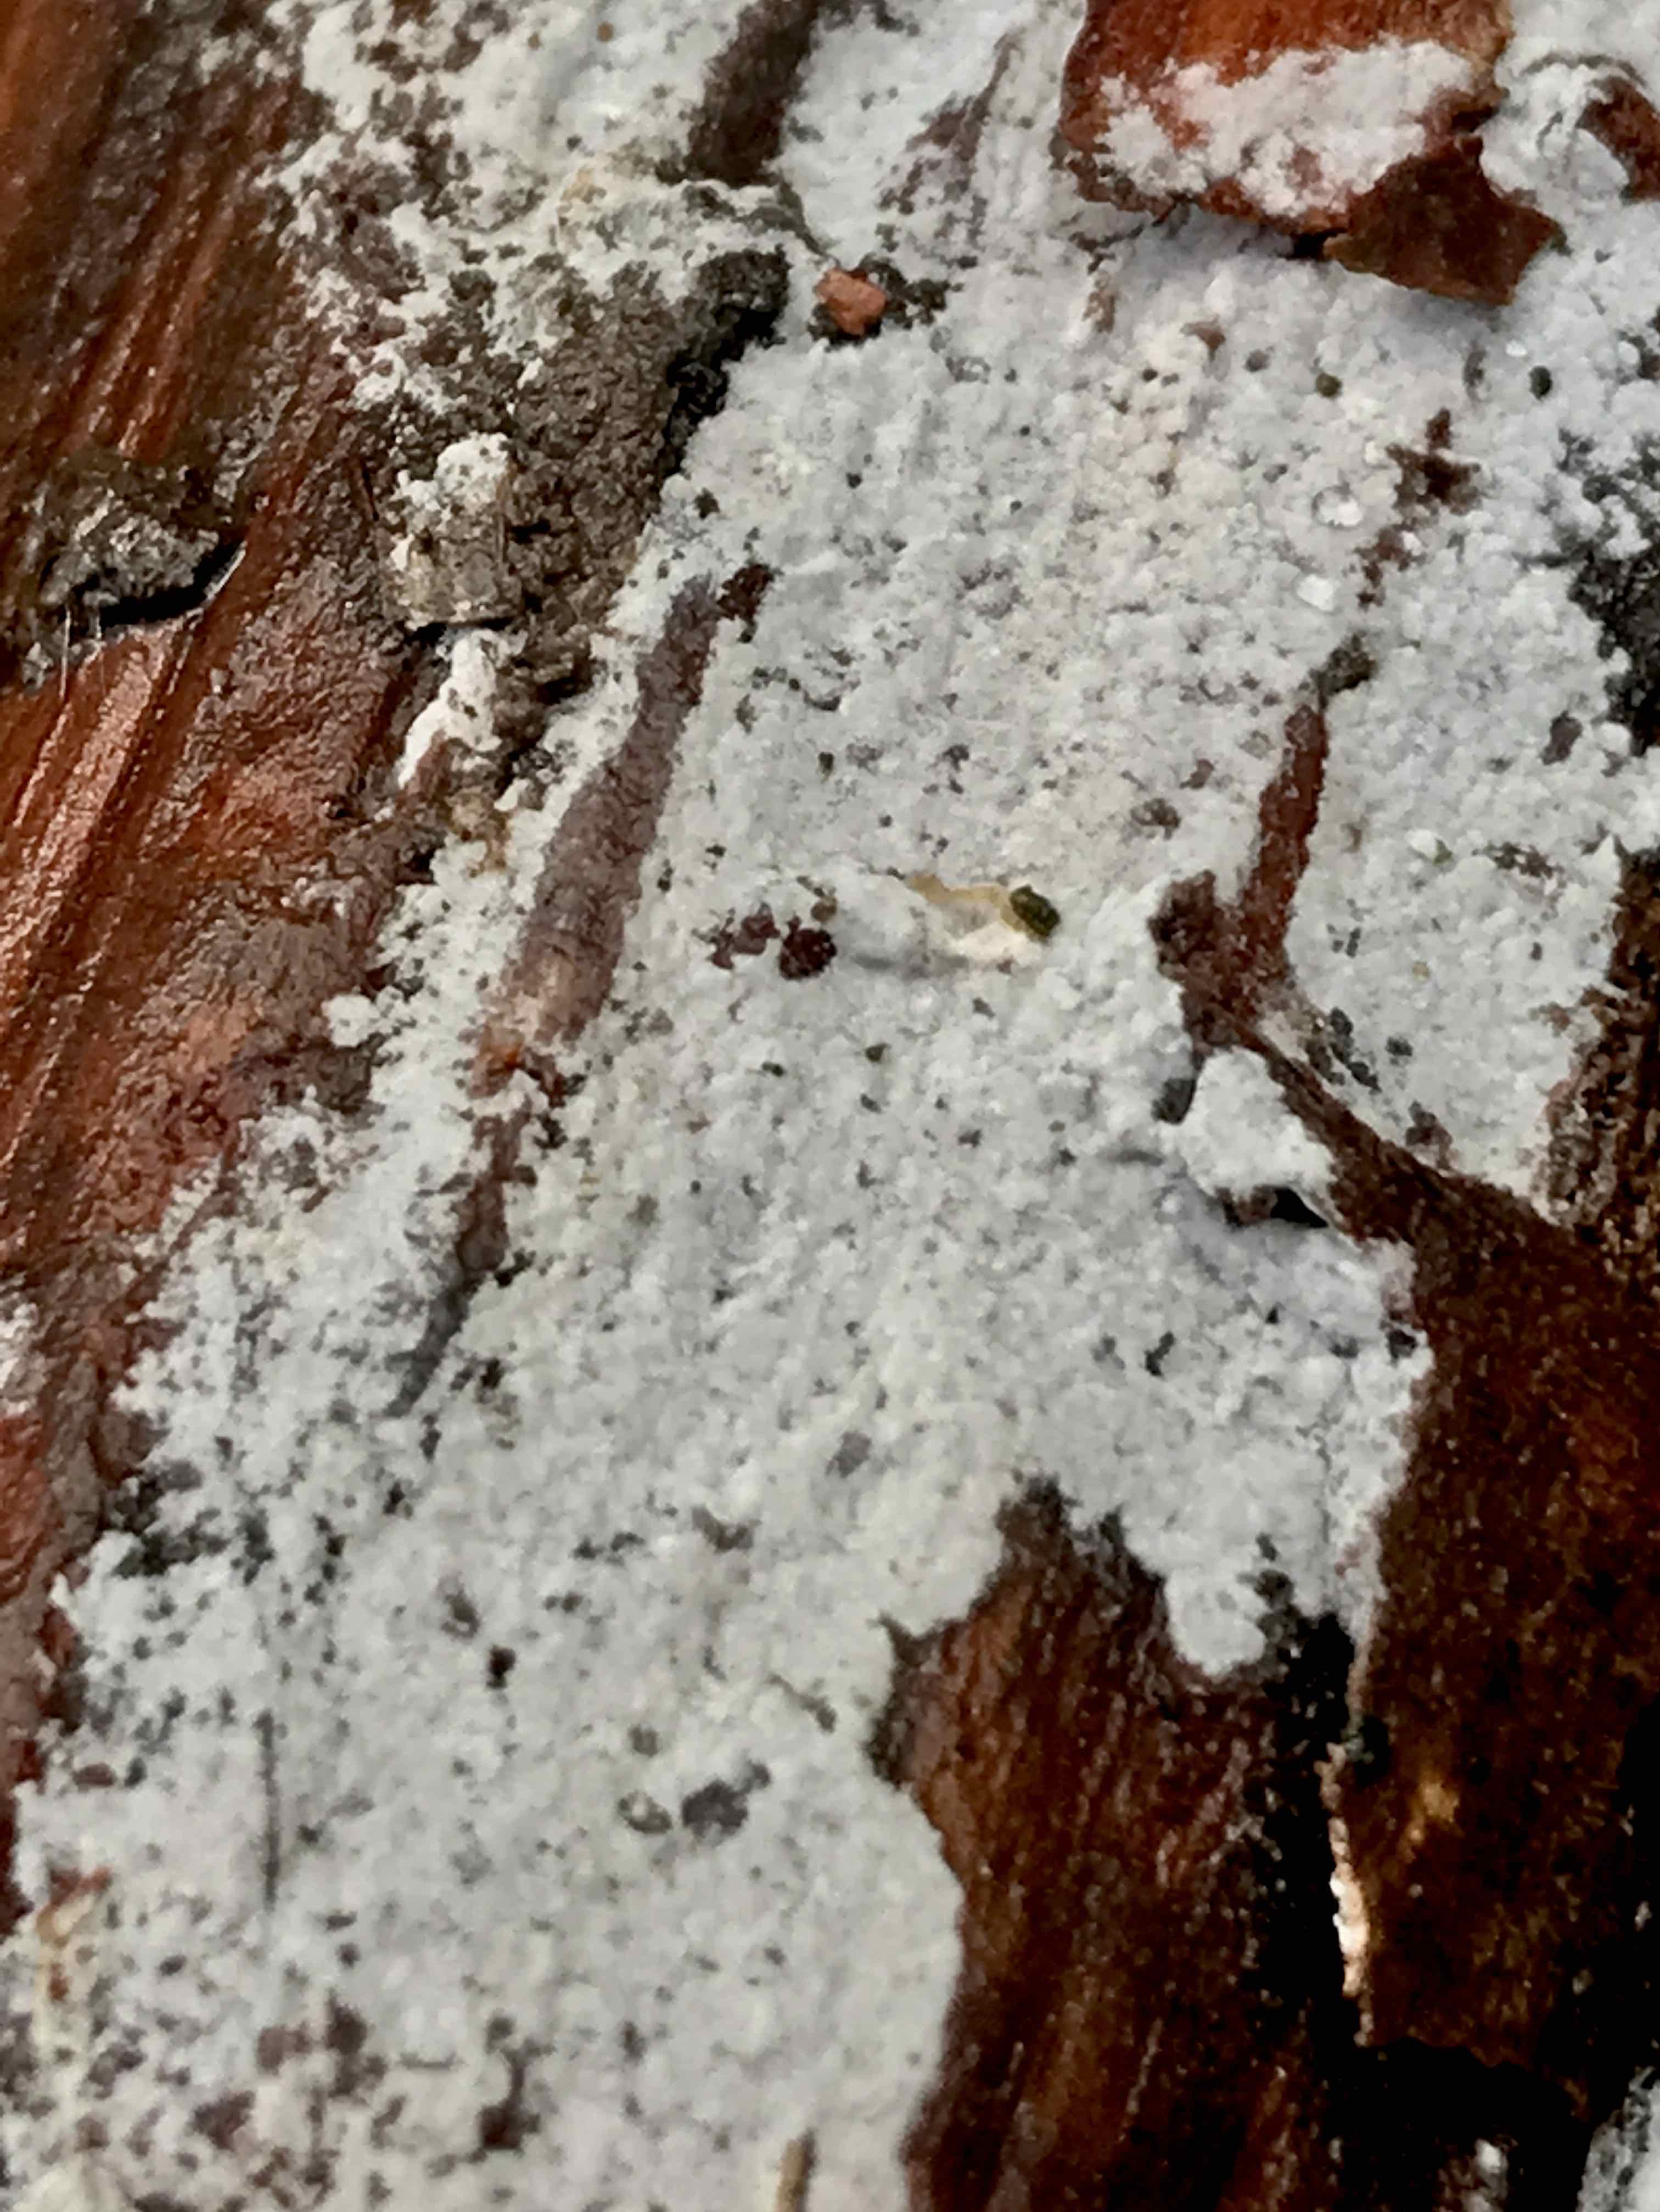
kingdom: Fungi
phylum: Basidiomycota
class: Agaricomycetes
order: Corticiales
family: Corticiaceae
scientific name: Corticiaceae
